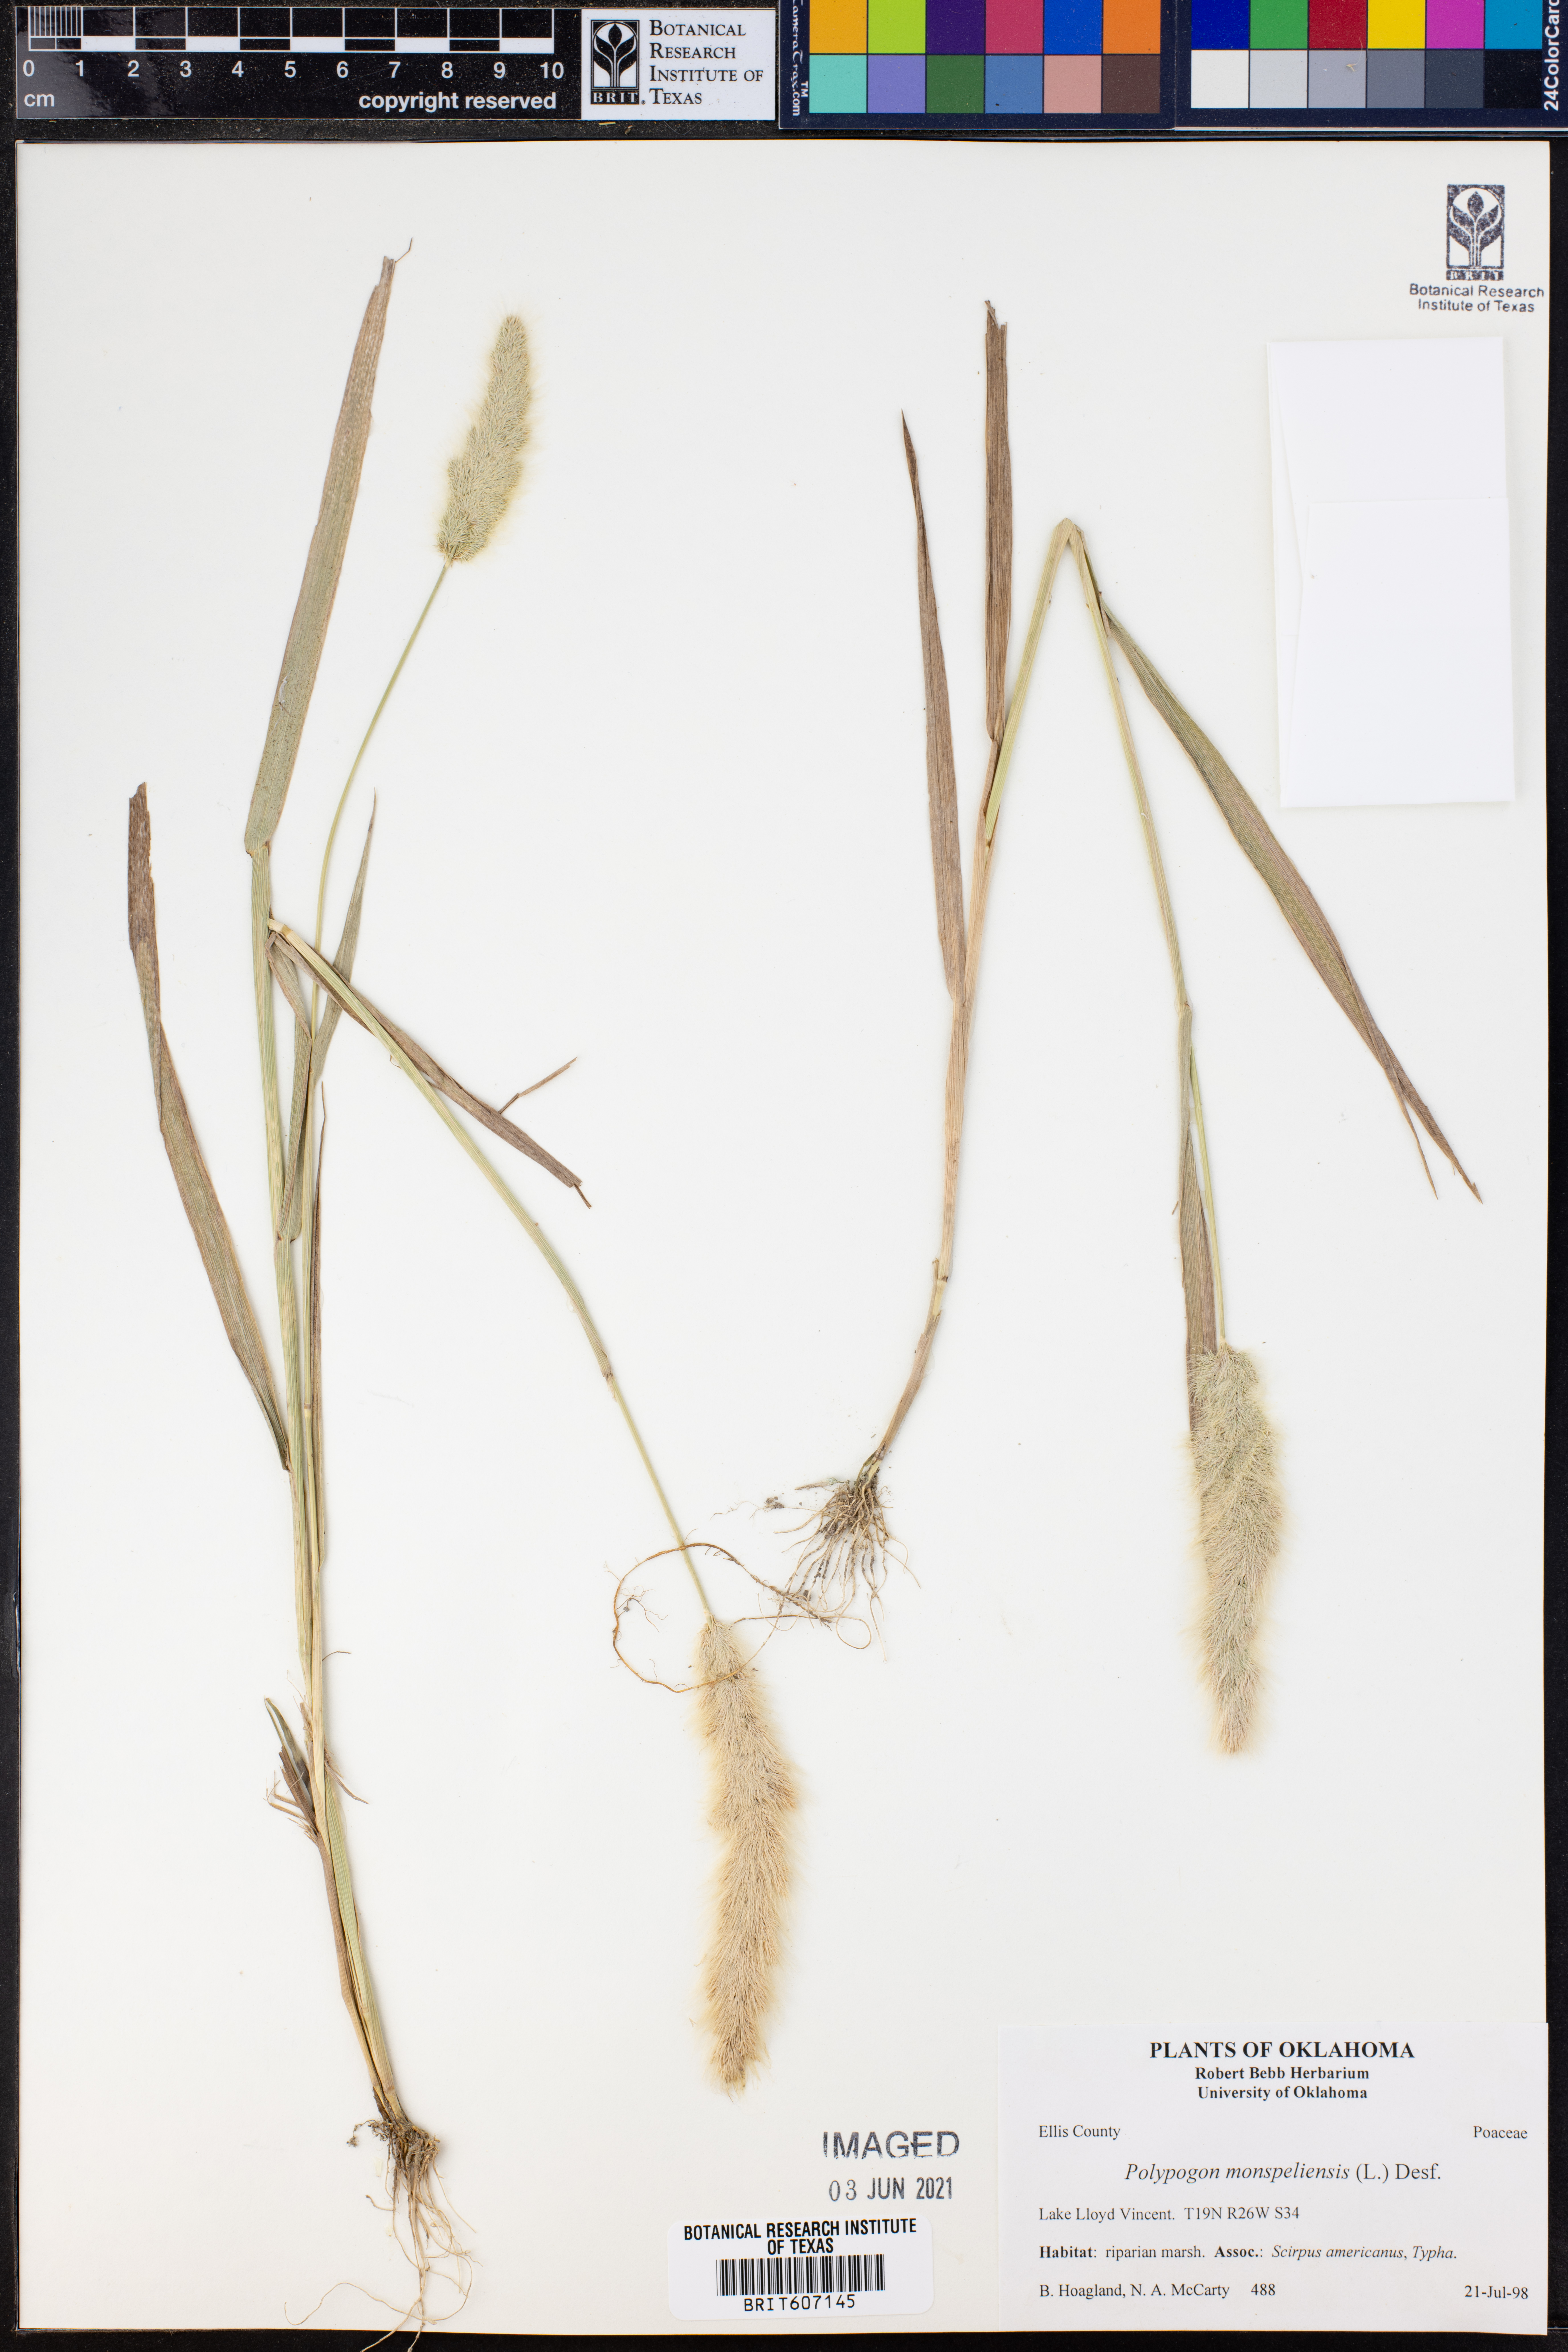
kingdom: Plantae
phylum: Tracheophyta
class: Liliopsida
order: Poales
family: Poaceae
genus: Polypogon
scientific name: Polypogon monspeliensis
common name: Annual rabbitsfoot grass
